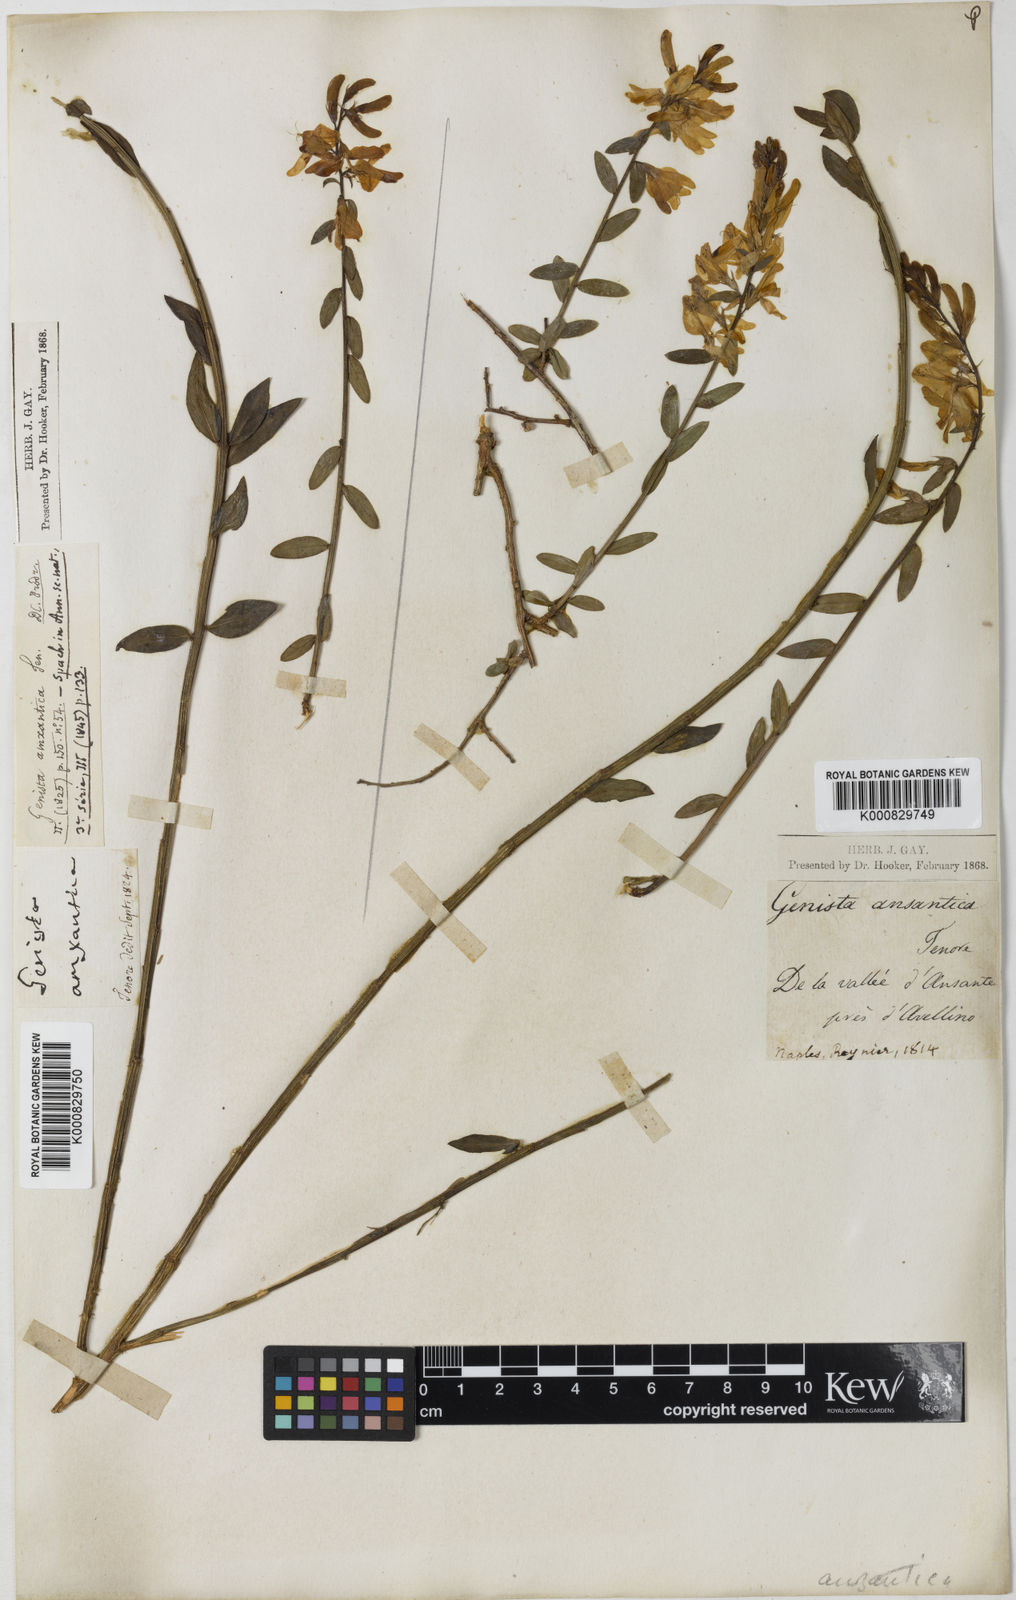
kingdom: Plantae
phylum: Tracheophyta
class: Magnoliopsida
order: Fabales
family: Fabaceae
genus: Genista
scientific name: Genista tinctoria
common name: Dyer's greenweed
